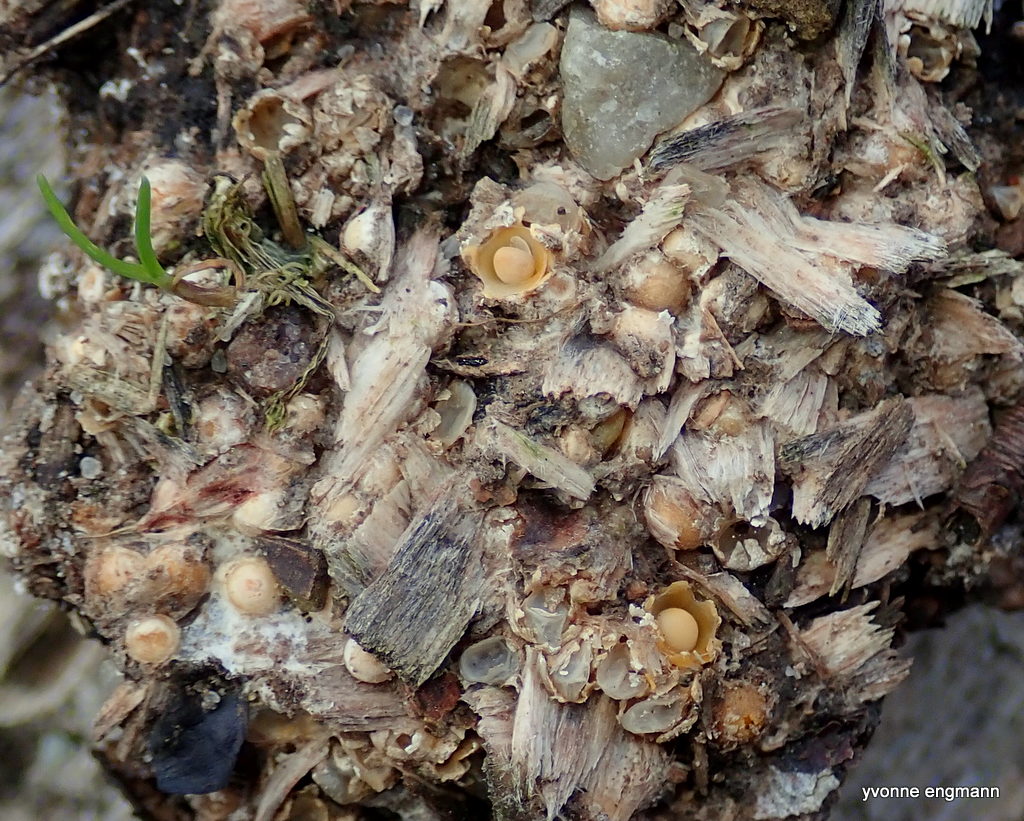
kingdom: Fungi
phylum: Basidiomycota
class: Agaricomycetes
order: Geastrales
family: Geastraceae
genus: Sphaerobolus
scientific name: Sphaerobolus stellatus
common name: bombekaster
